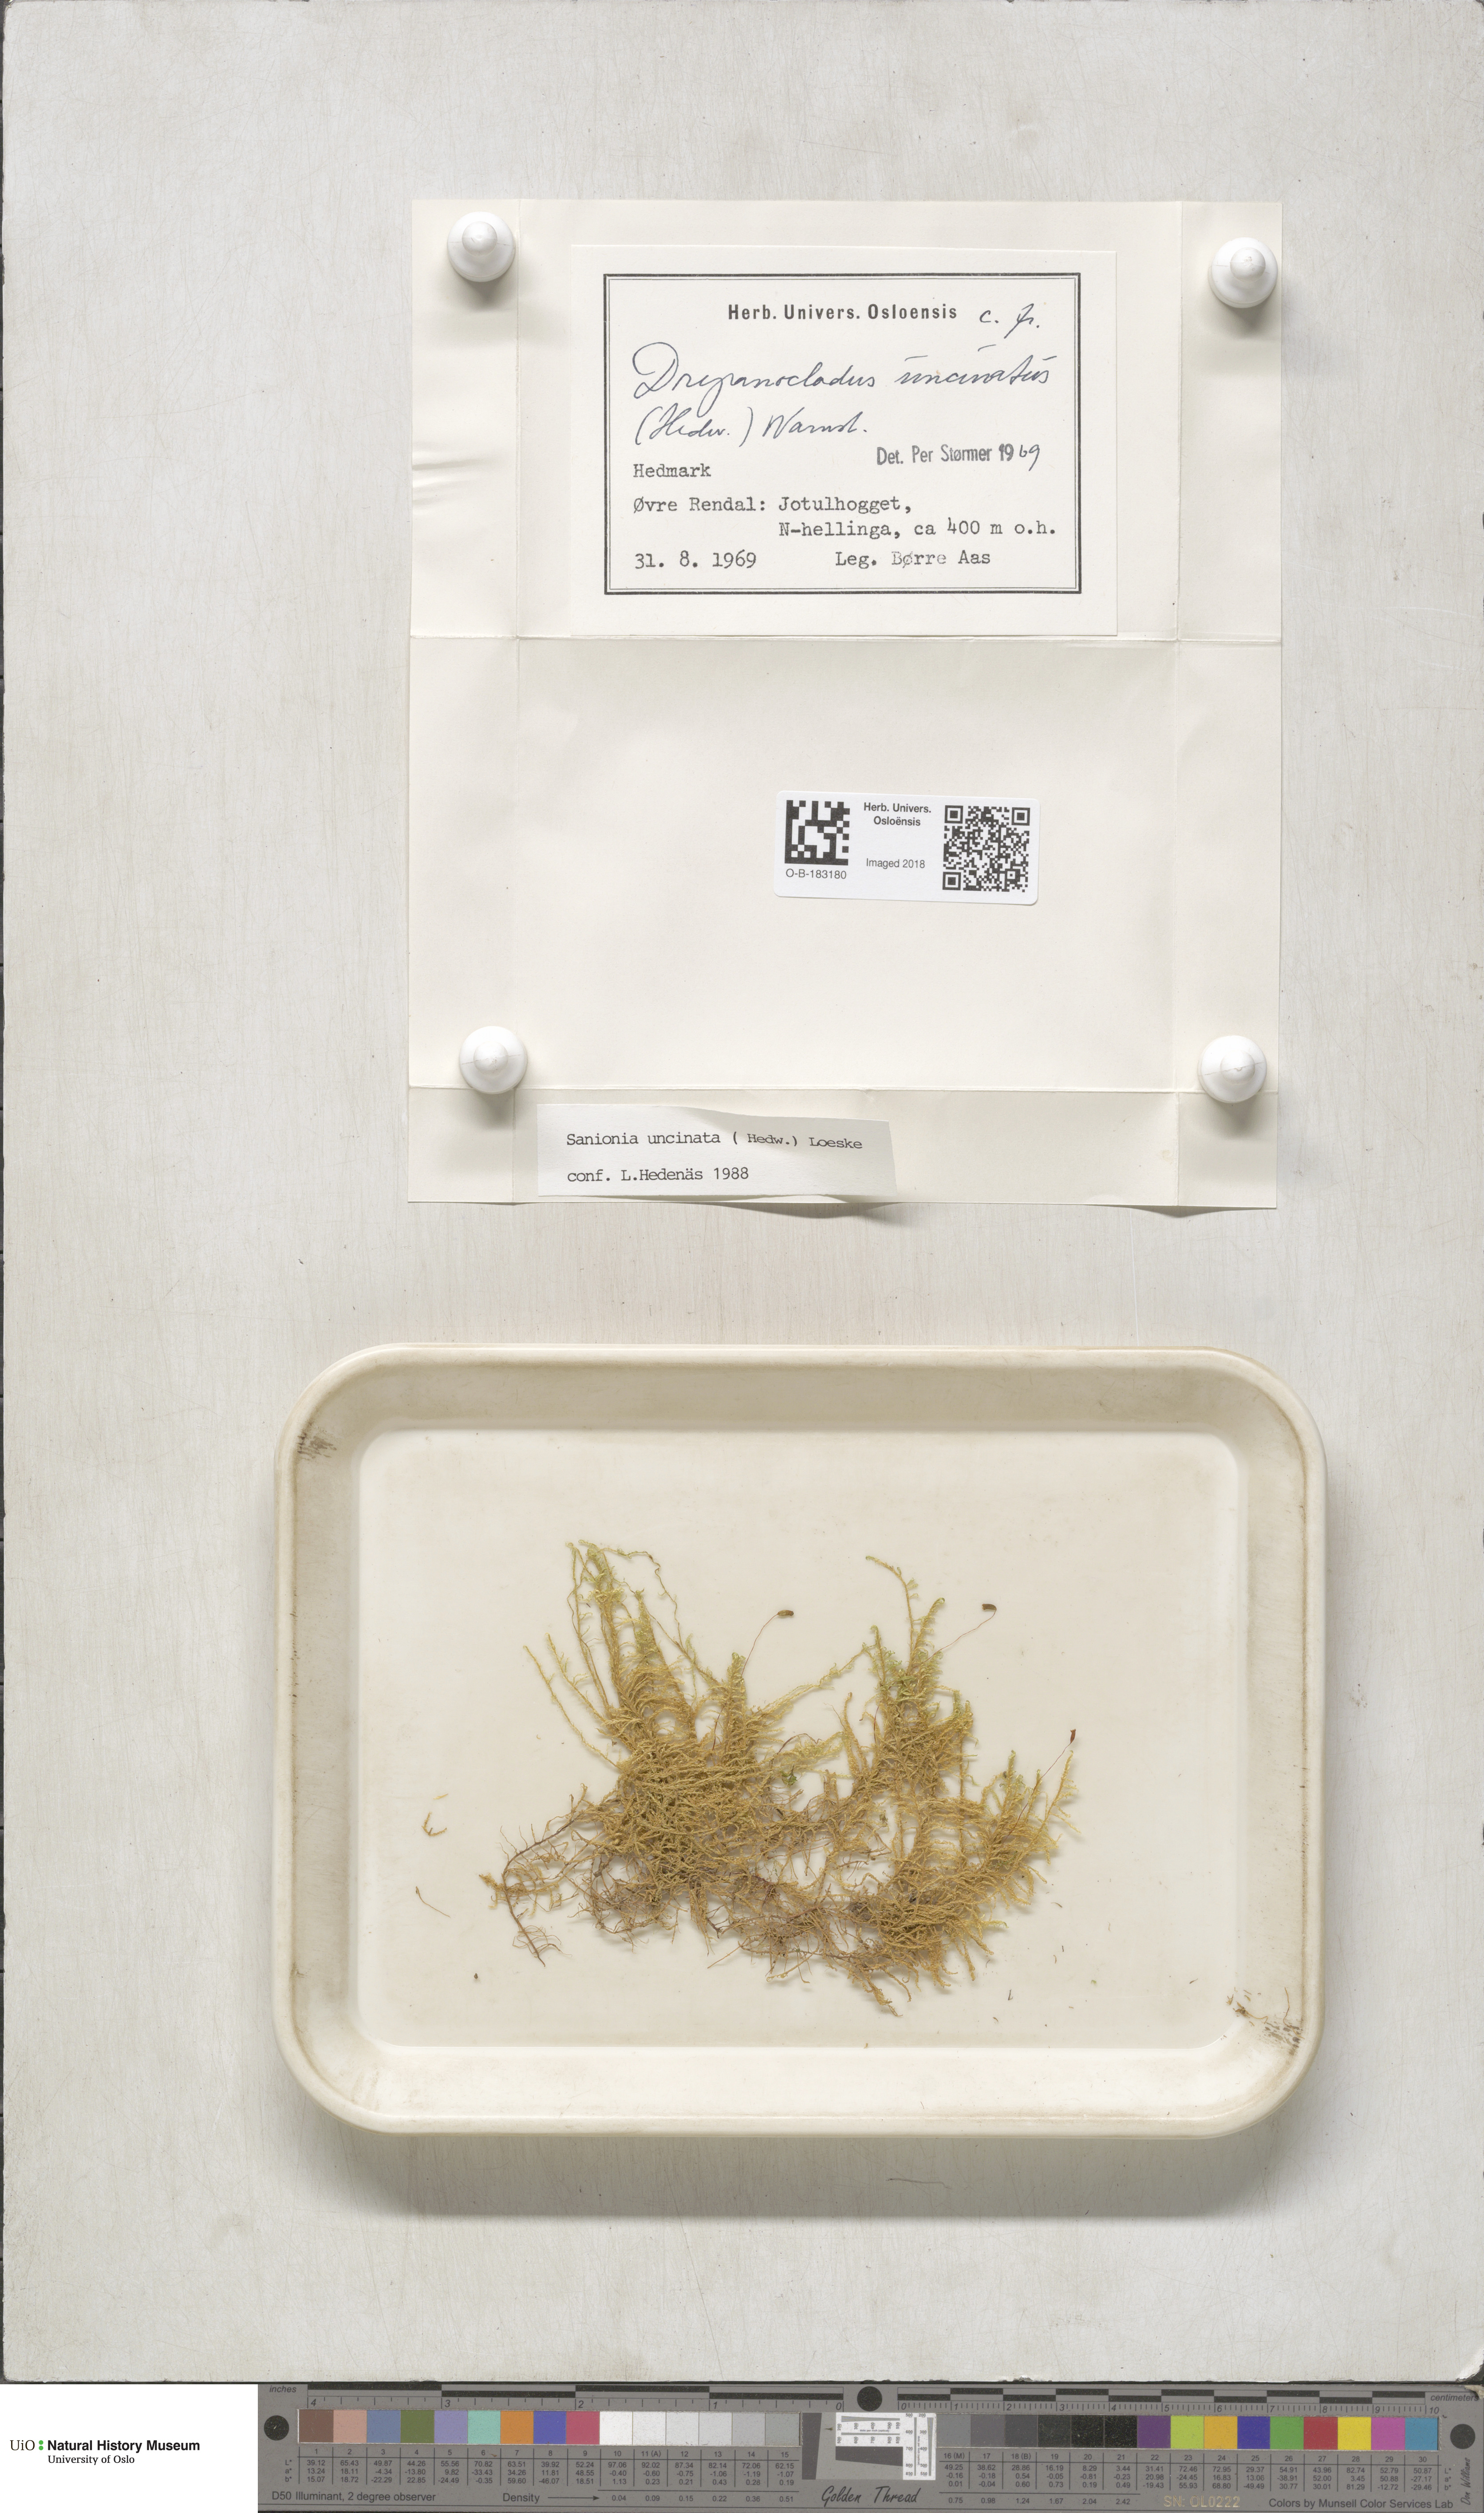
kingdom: Plantae
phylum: Bryophyta
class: Bryopsida
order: Hypnales
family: Scorpidiaceae
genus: Sanionia
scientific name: Sanionia uncinata
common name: Sickle moss
